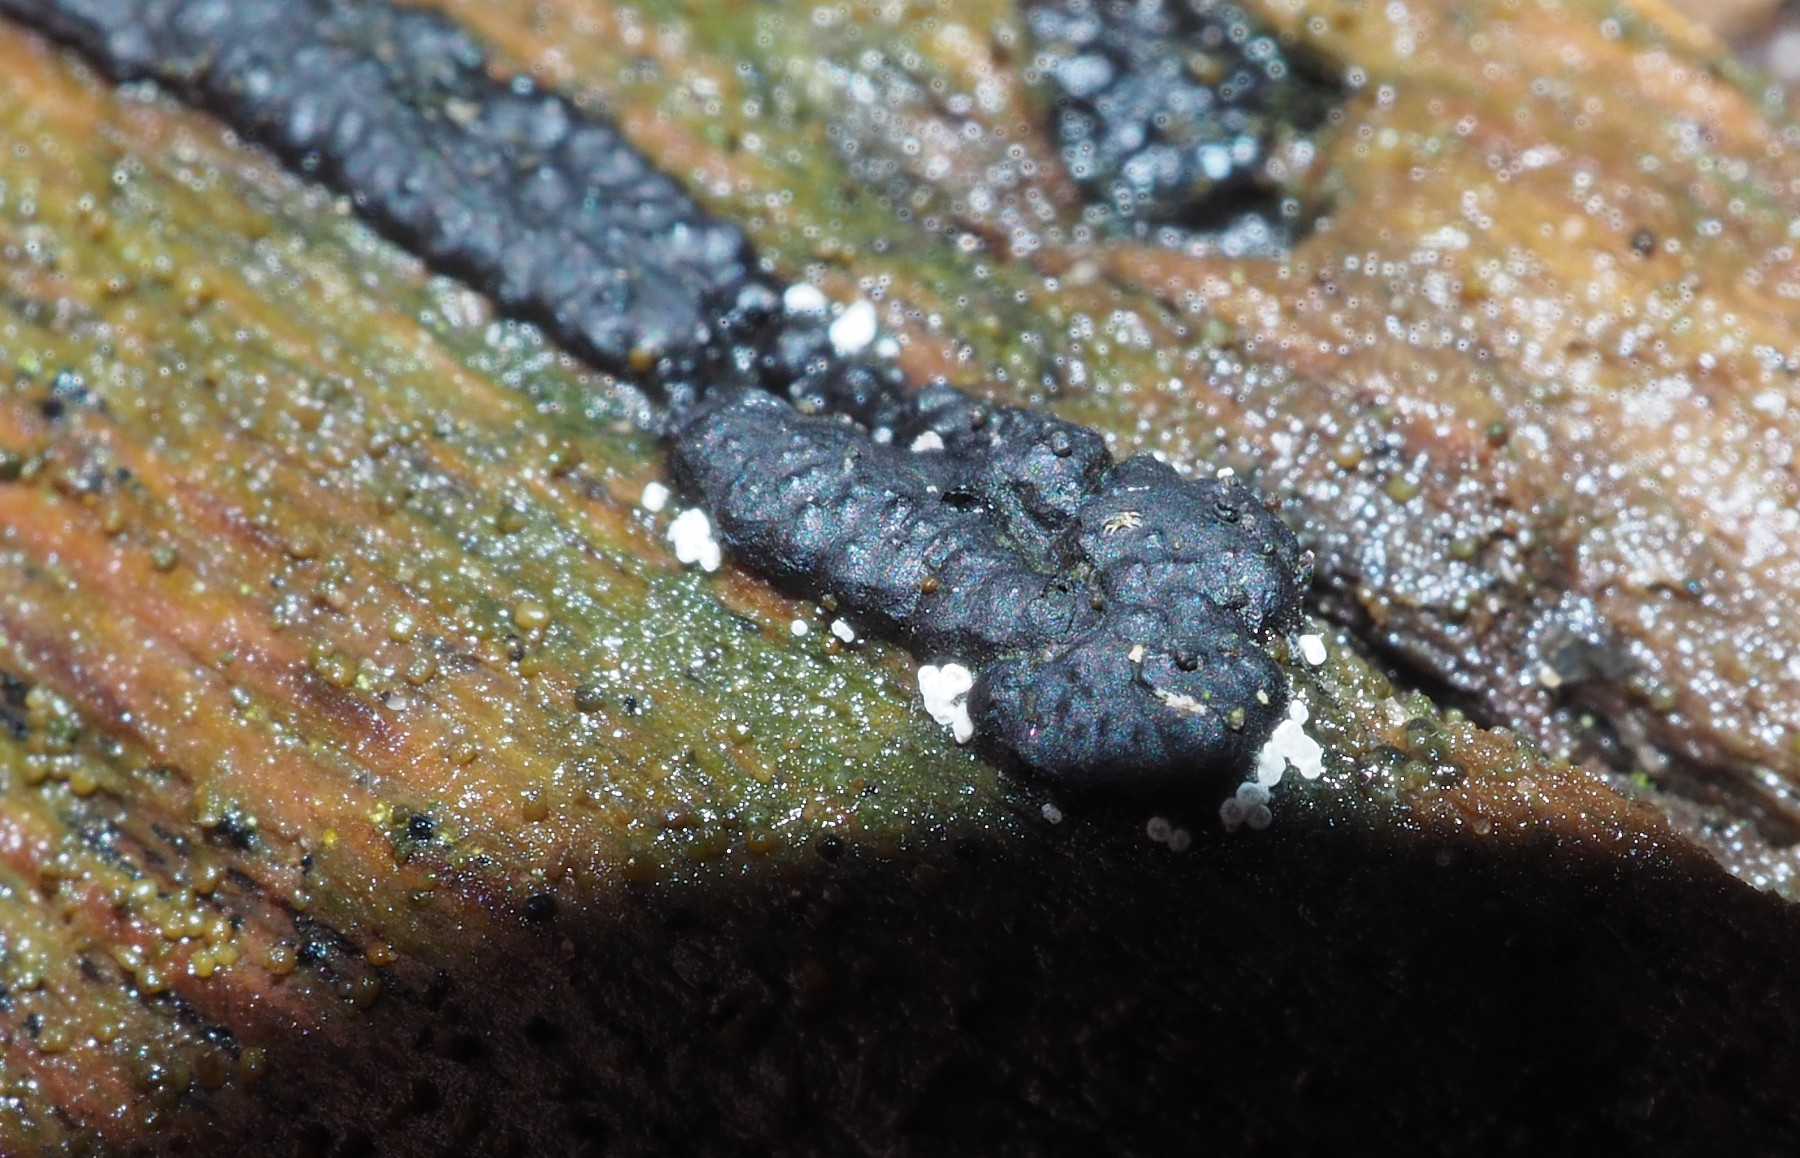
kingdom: Fungi
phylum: Ascomycota
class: Leotiomycetes
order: Helotiales
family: Hyaloscyphaceae
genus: Polydesmia
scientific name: Polydesmia pruinosa
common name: dunskive
